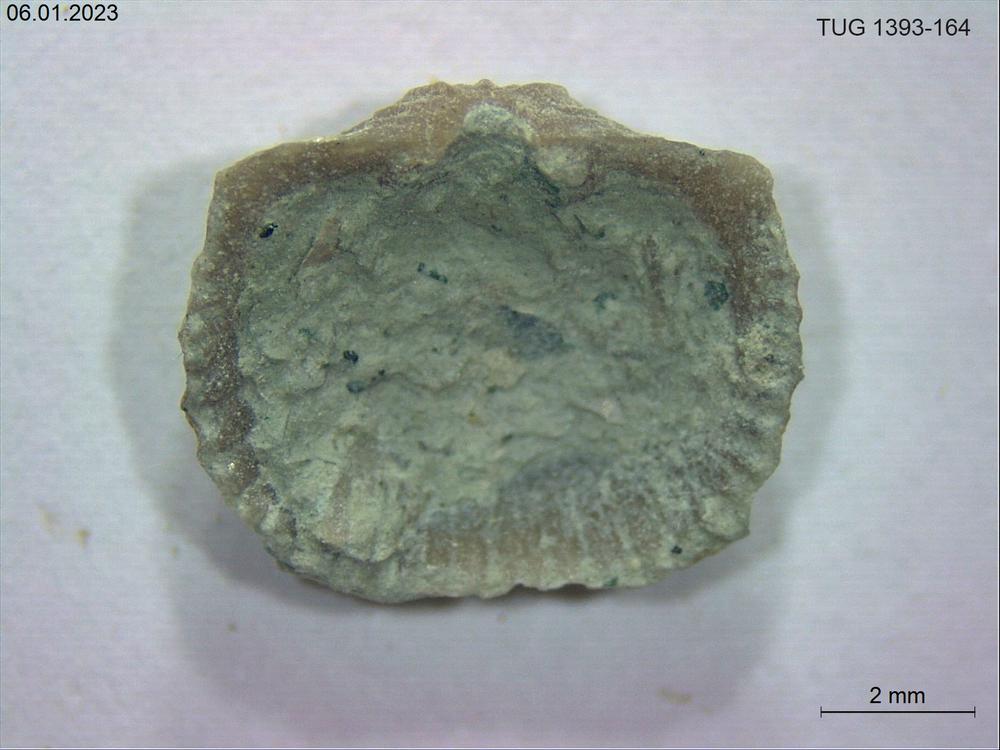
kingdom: Animalia
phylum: Brachiopoda
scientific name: Brachiopoda
